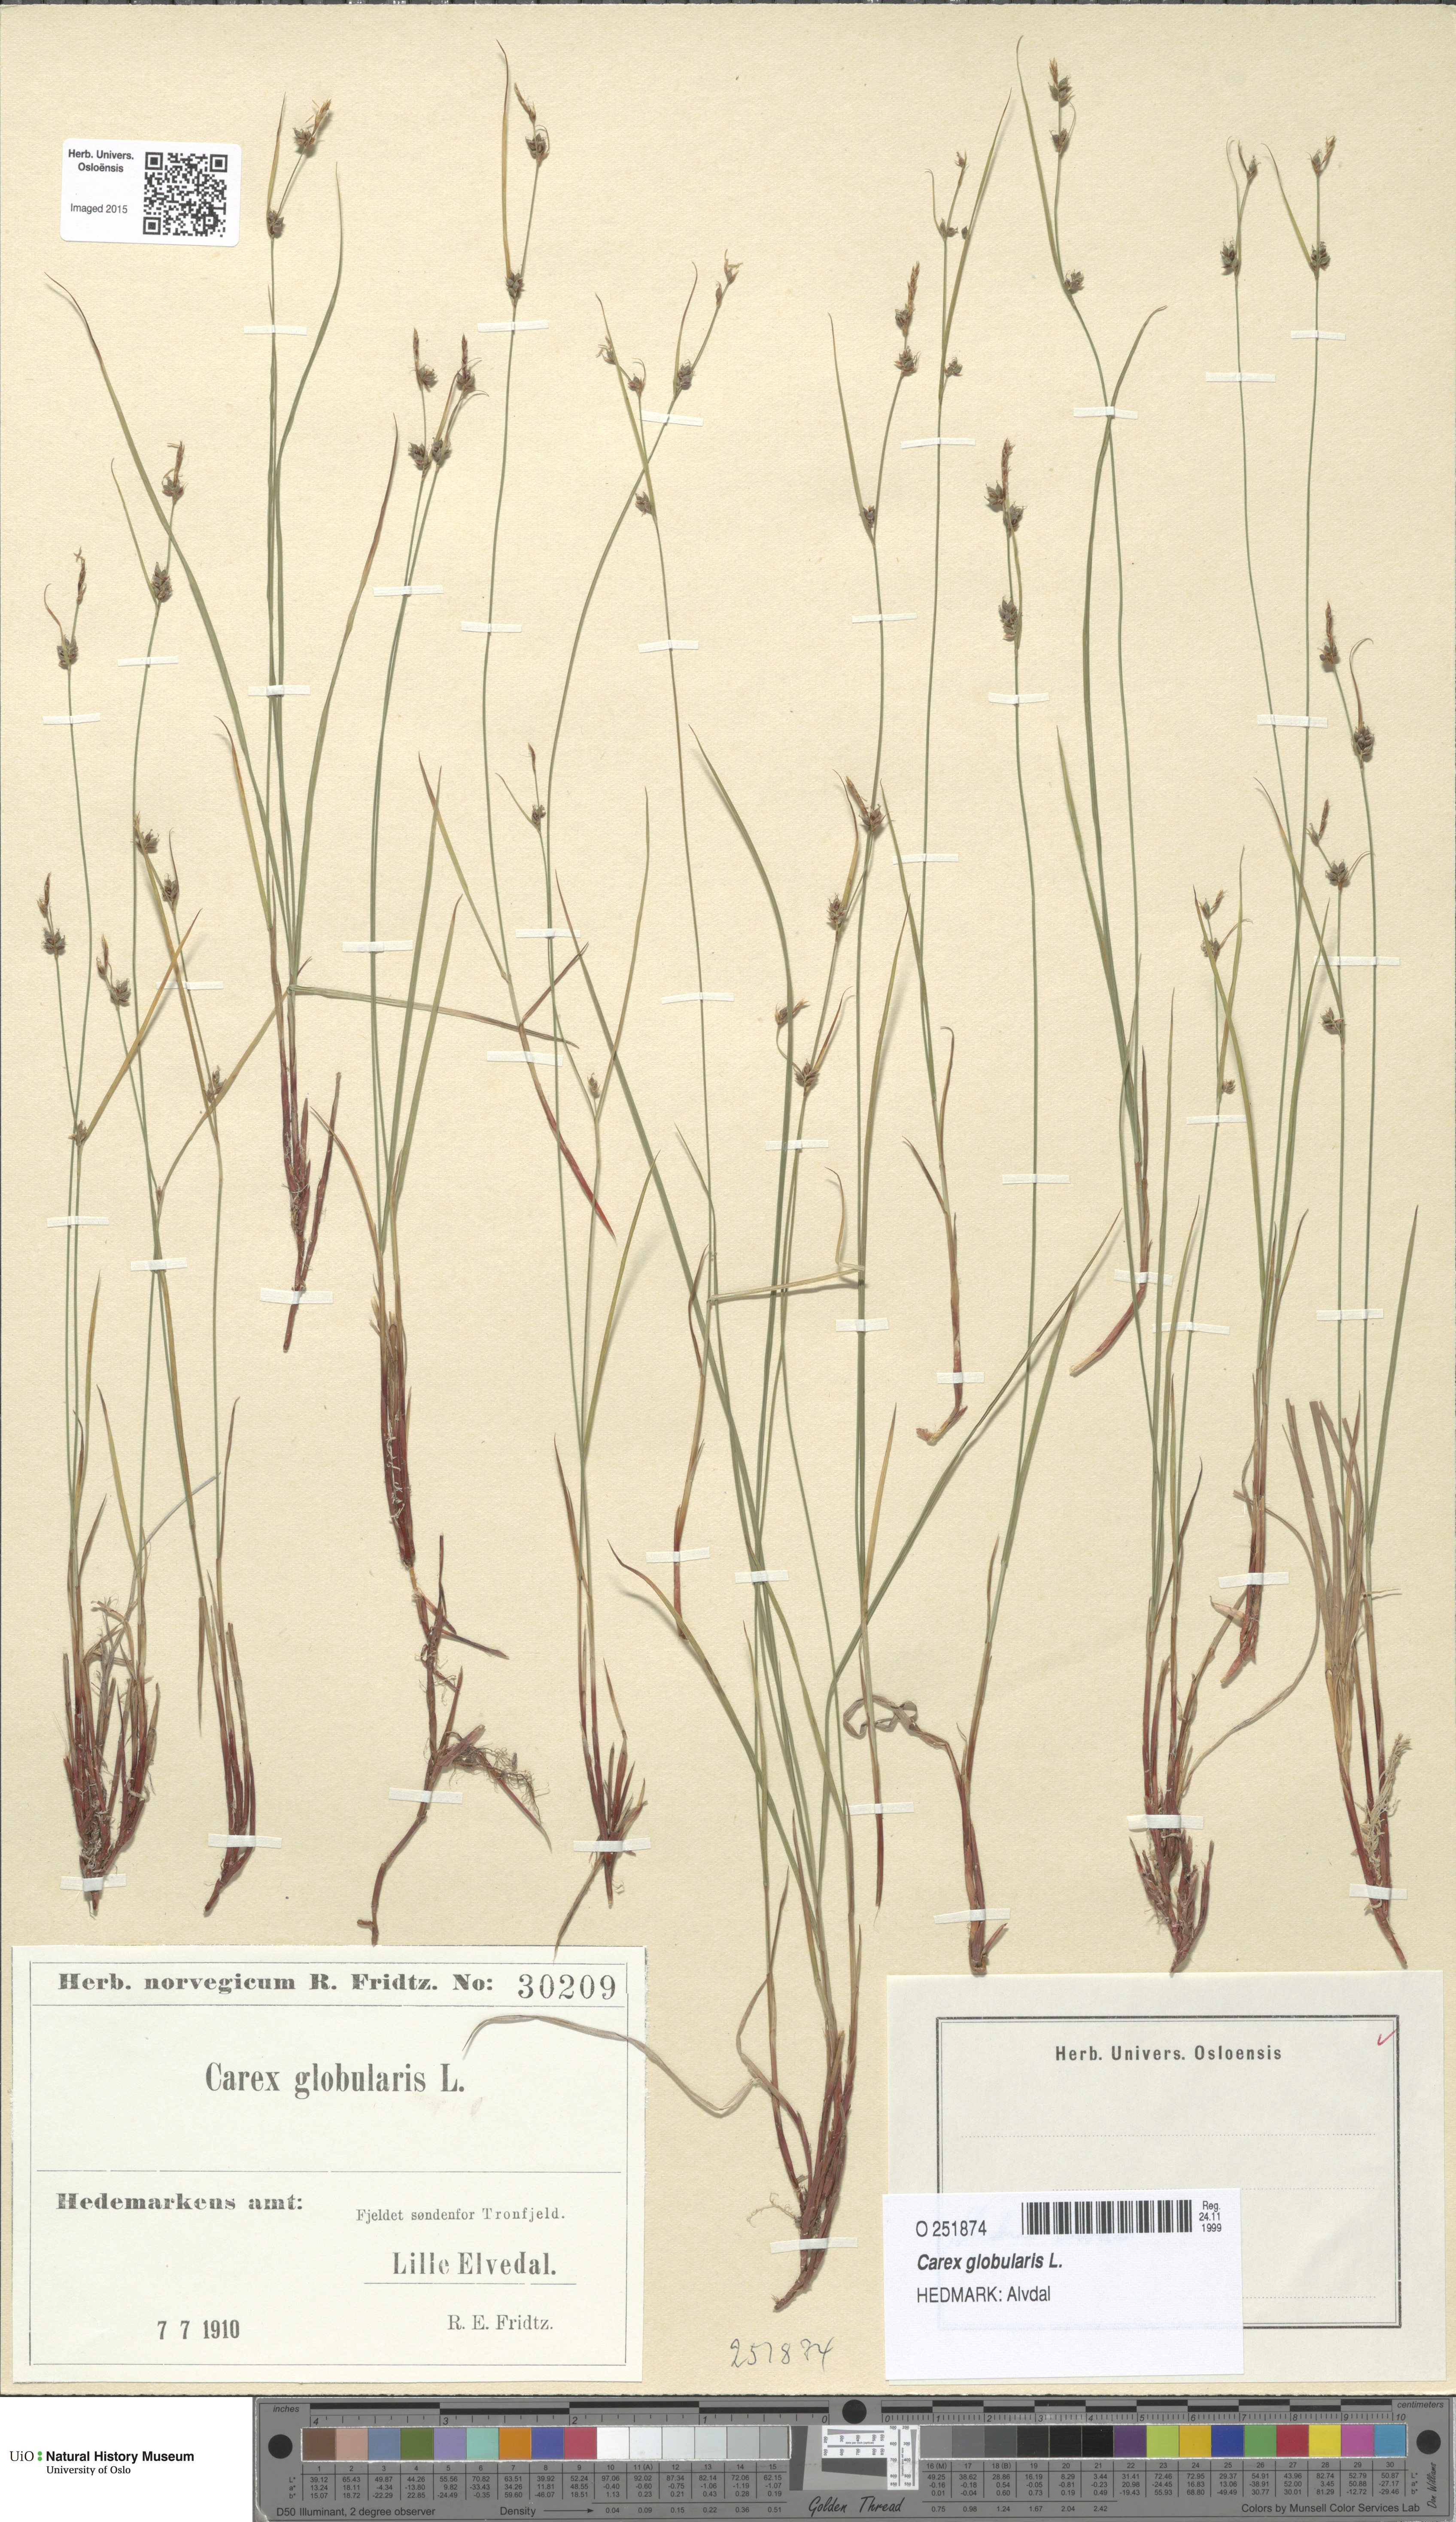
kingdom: Plantae
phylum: Tracheophyta
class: Liliopsida
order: Poales
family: Cyperaceae
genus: Carex
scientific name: Carex globularis
